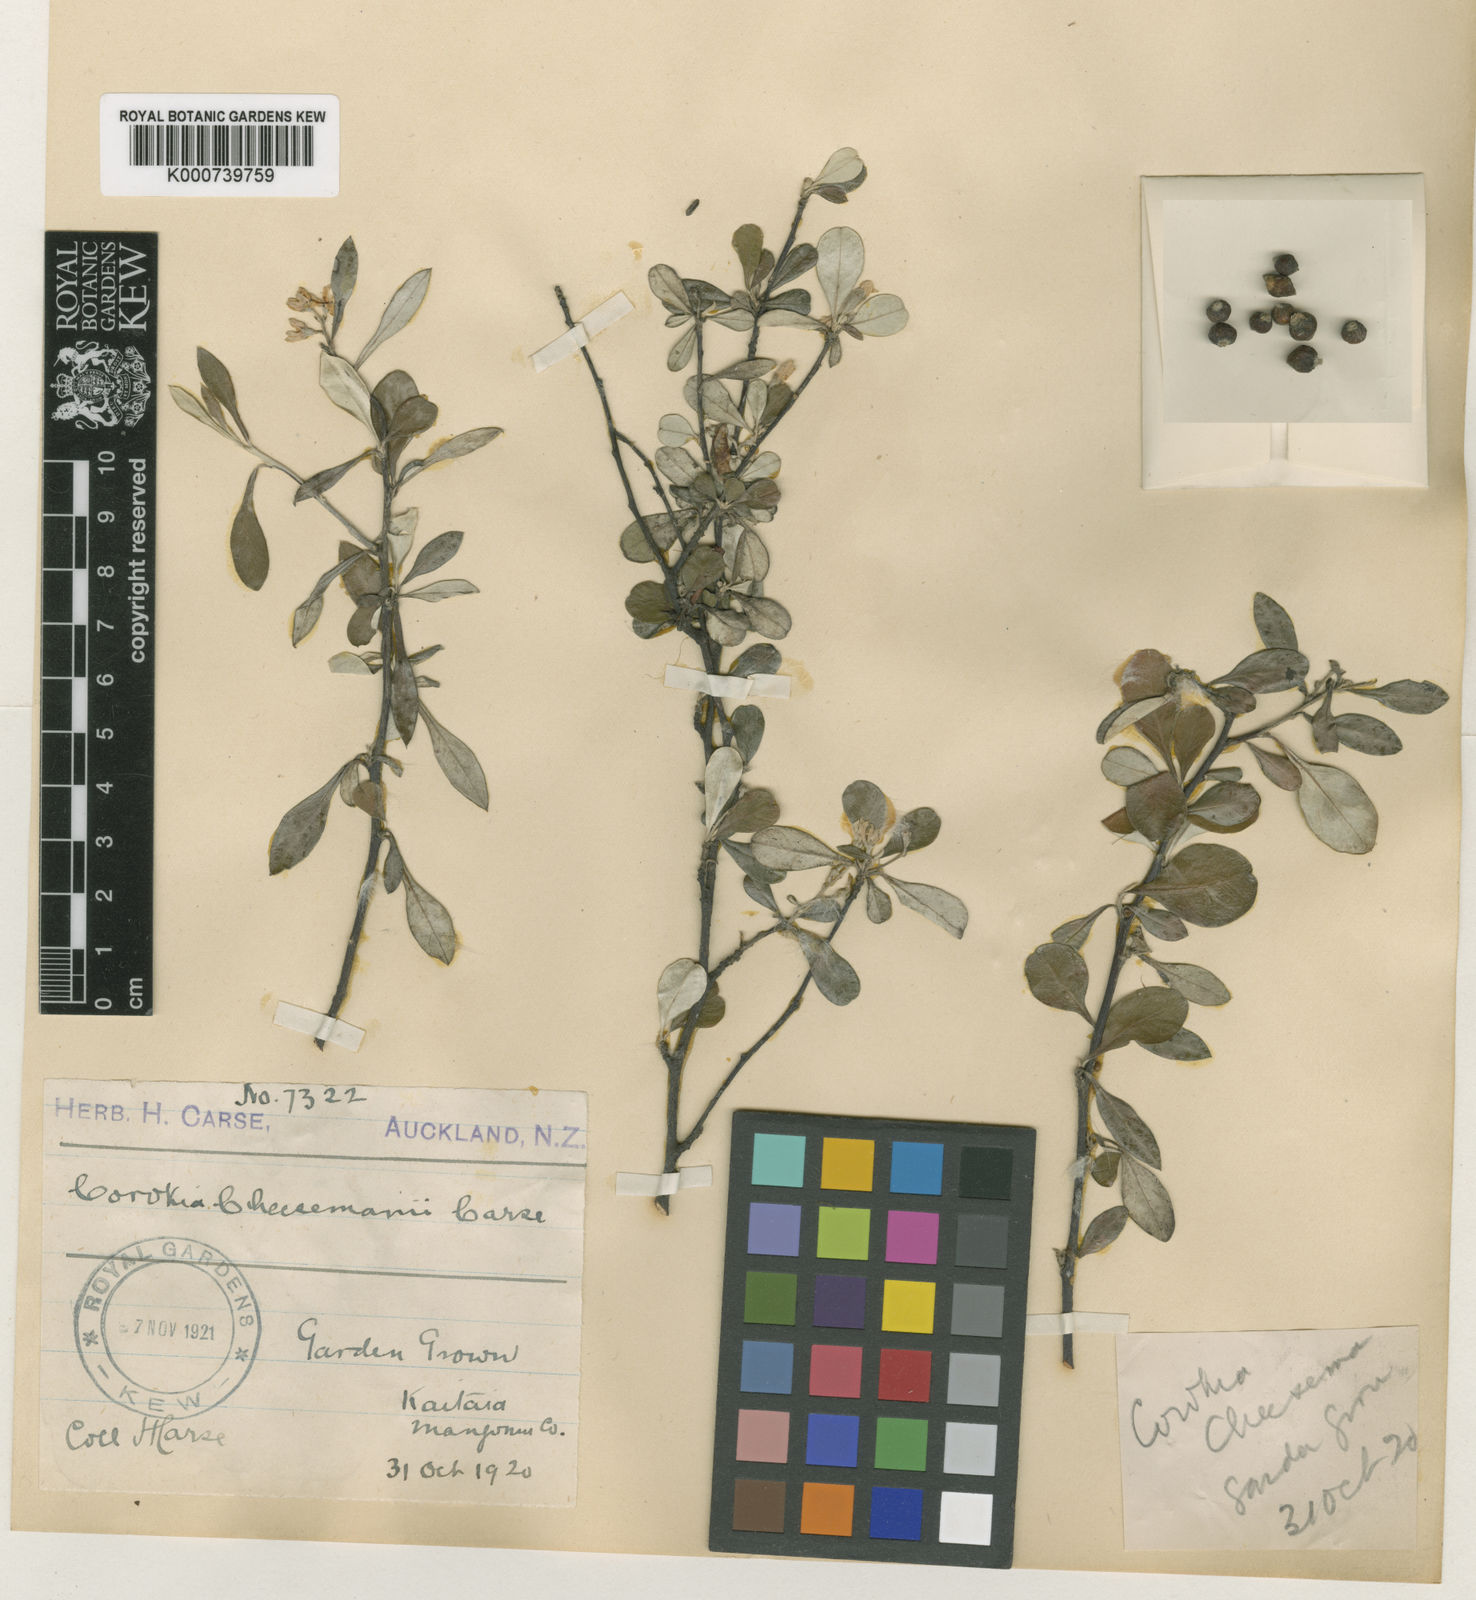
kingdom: Plantae
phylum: Tracheophyta
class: Magnoliopsida
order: Asterales
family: Argophyllaceae
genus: Corokia
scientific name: Corokia virgata
